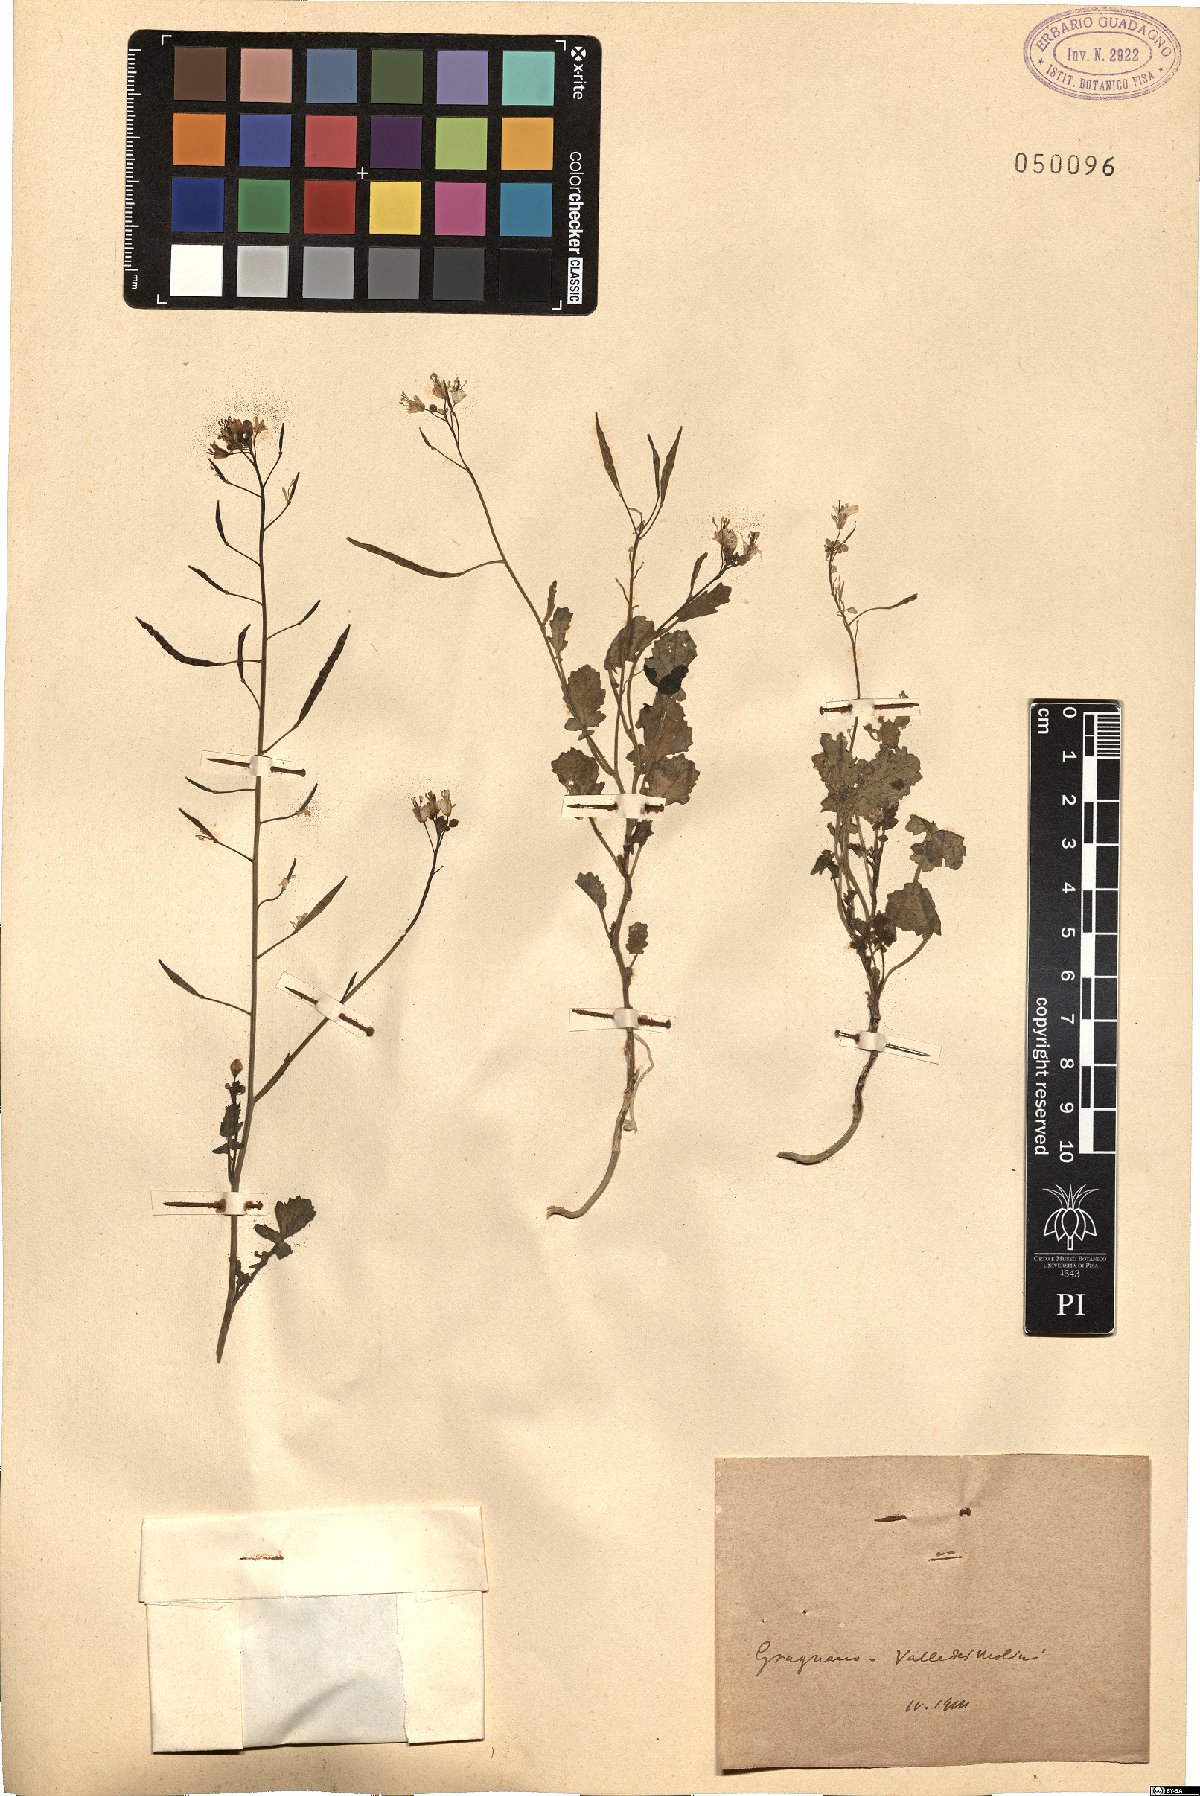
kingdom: Plantae
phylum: Tracheophyta
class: Magnoliopsida
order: Brassicales
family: Brassicaceae
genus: Brassica
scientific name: Brassica
